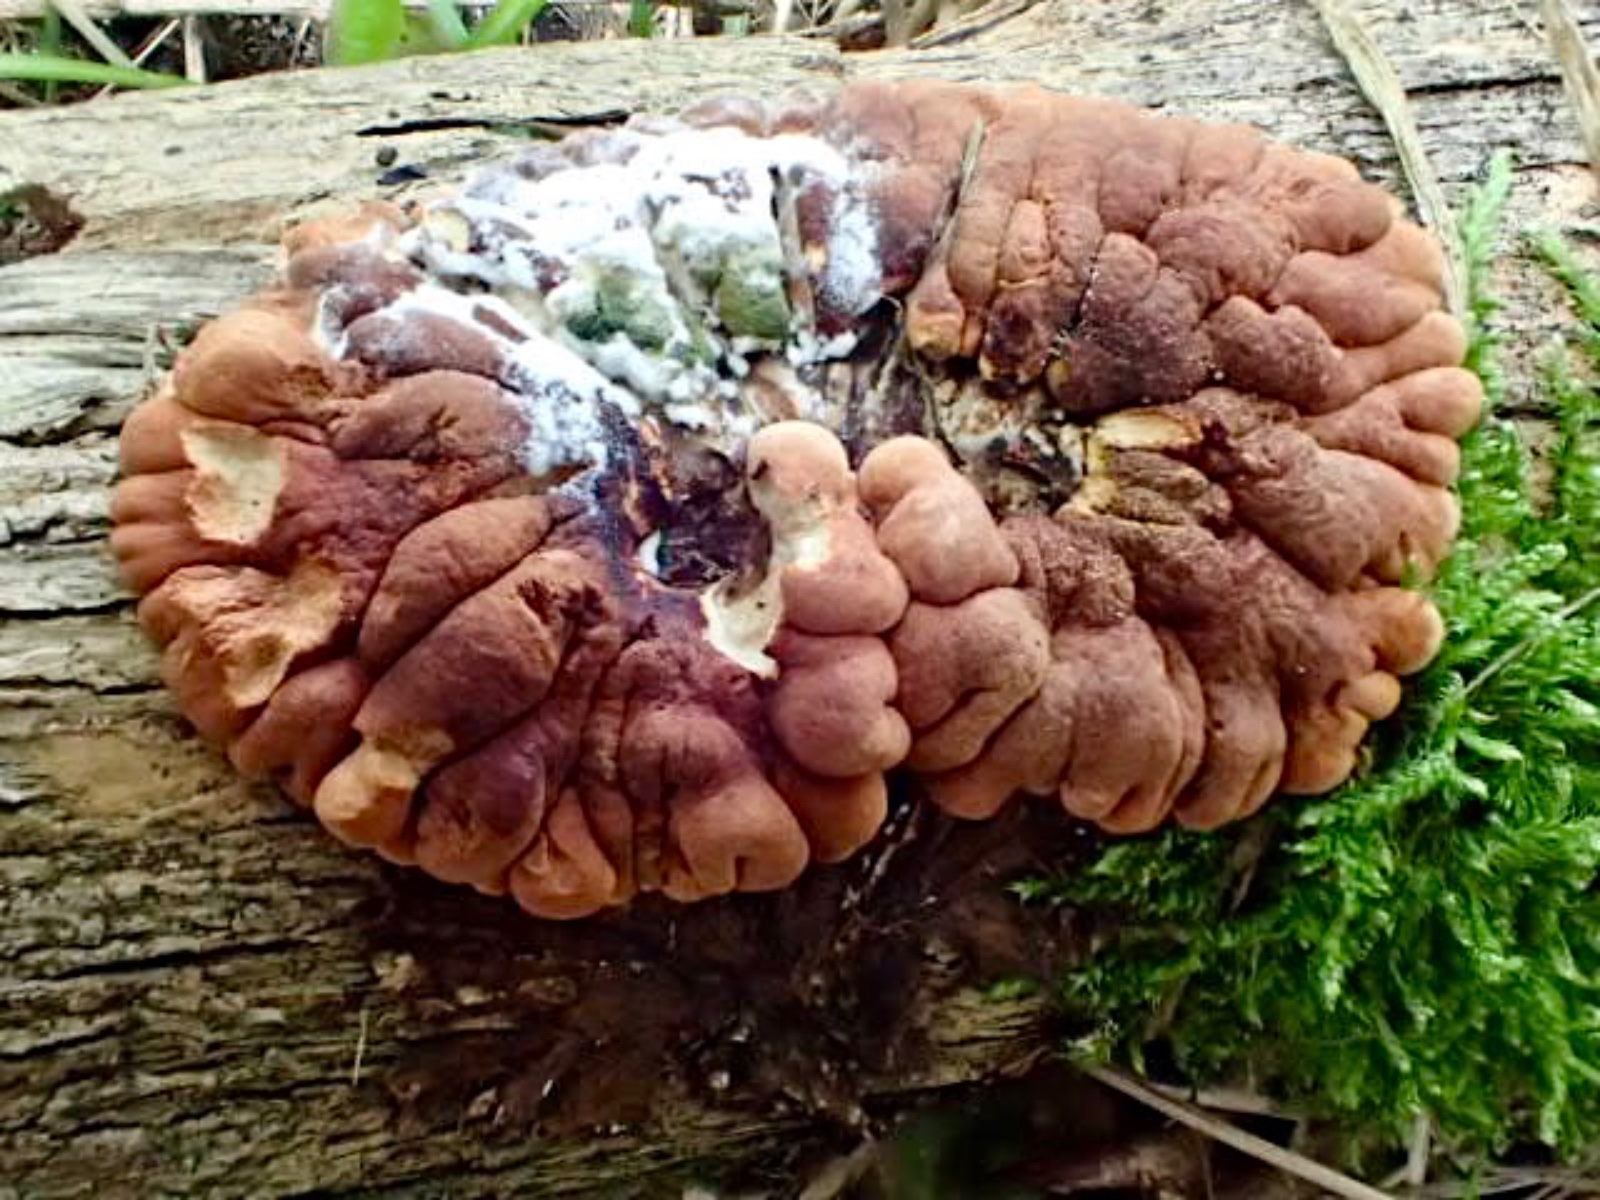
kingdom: Fungi
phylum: Ascomycota
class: Sordariomycetes
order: Hypocreales
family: Hypocreaceae
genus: Hypocreopsis
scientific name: Hypocreopsis lichenoides
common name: pilfinger
